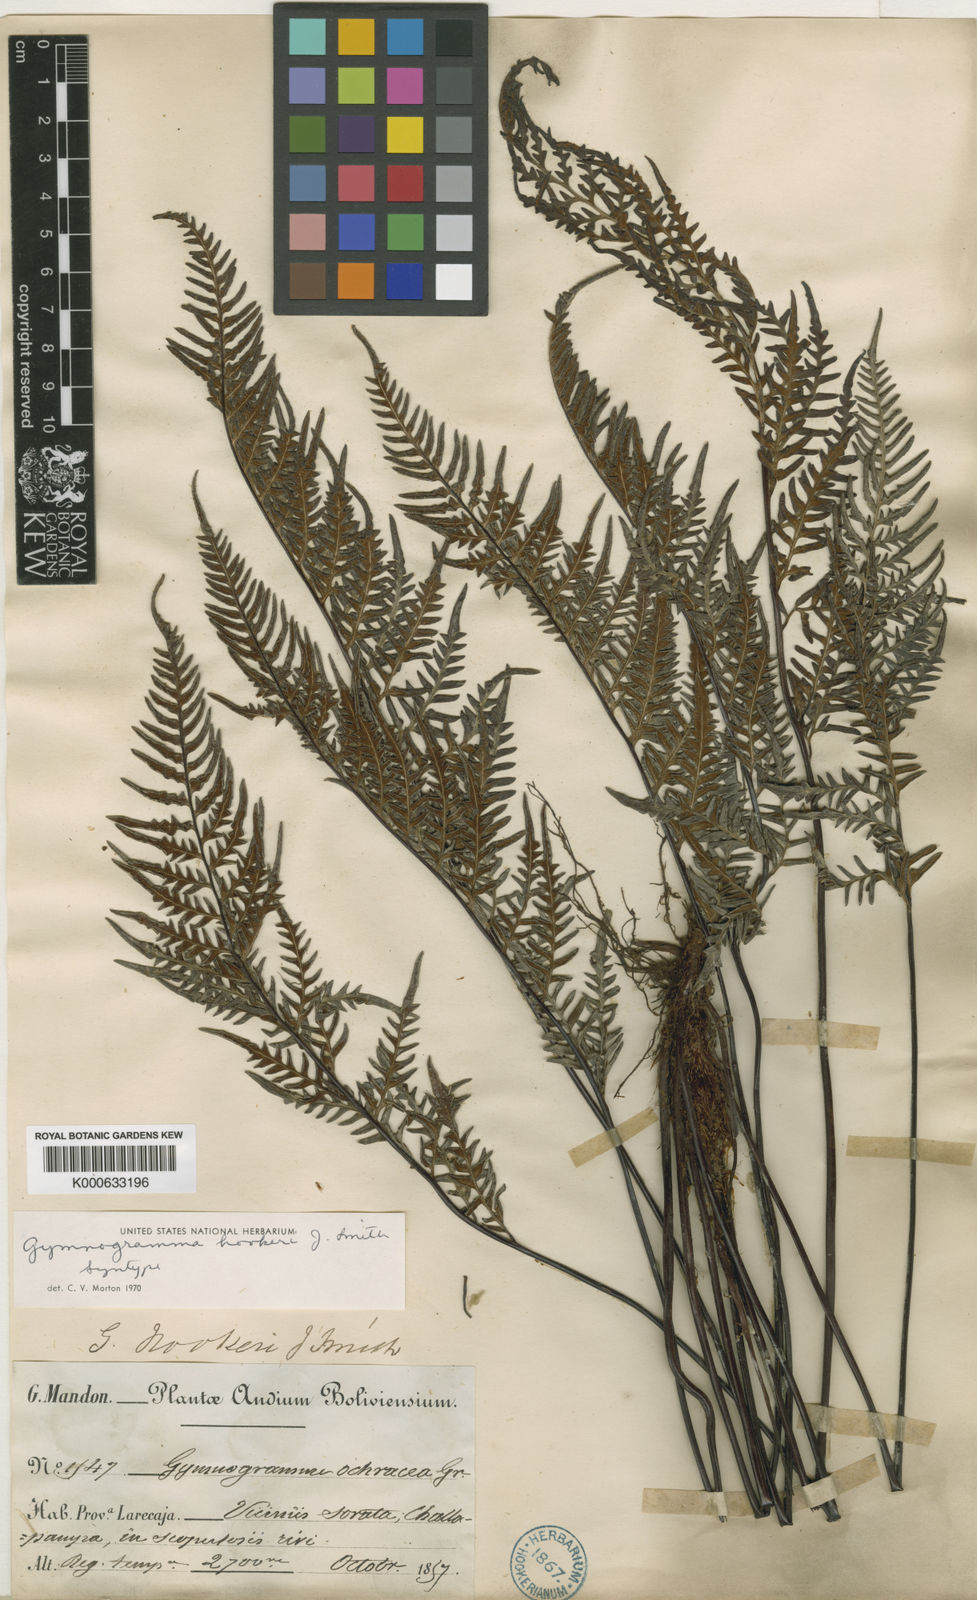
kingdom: Plantae
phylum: Tracheophyta
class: Polypodiopsida
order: Polypodiales
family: Pteridaceae
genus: Pityrogramma
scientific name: Pityrogramma ochracea
